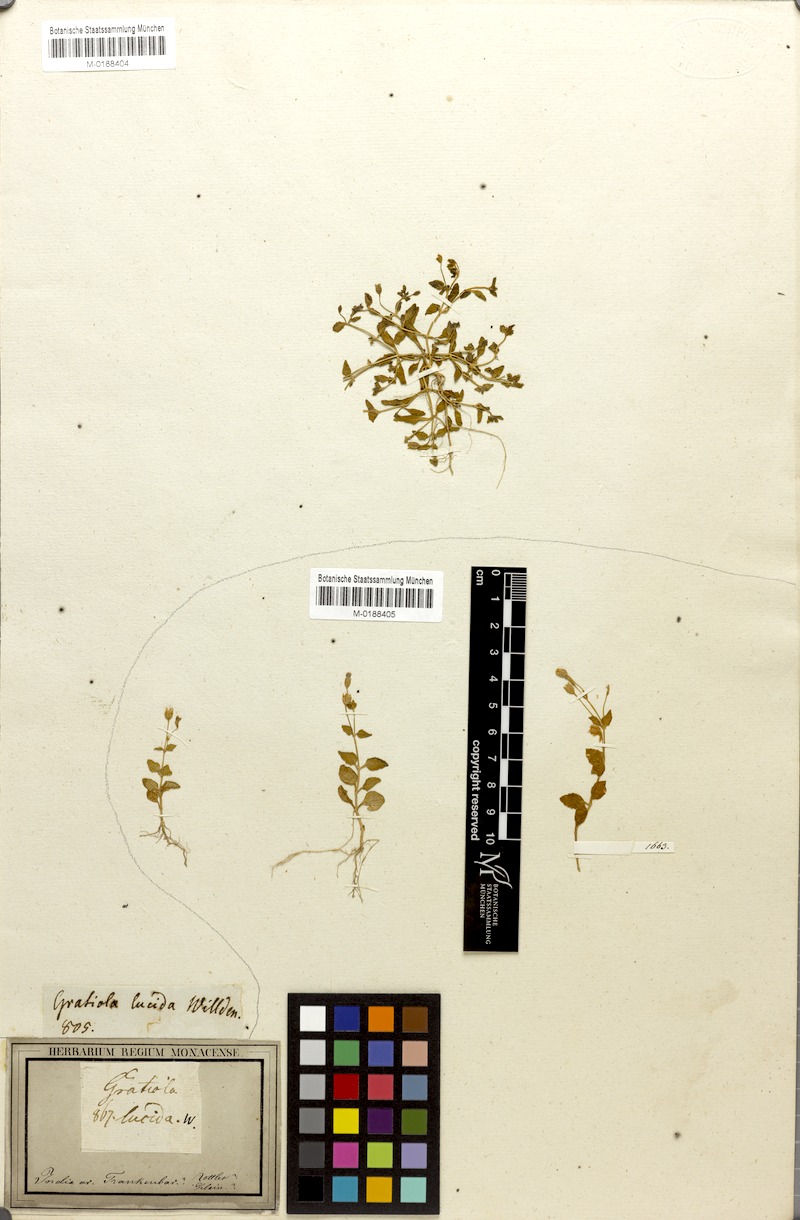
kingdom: Plantae
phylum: Tracheophyta
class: Magnoliopsida
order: Lamiales
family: Linderniaceae
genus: Torenia
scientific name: Torenia crustacea
